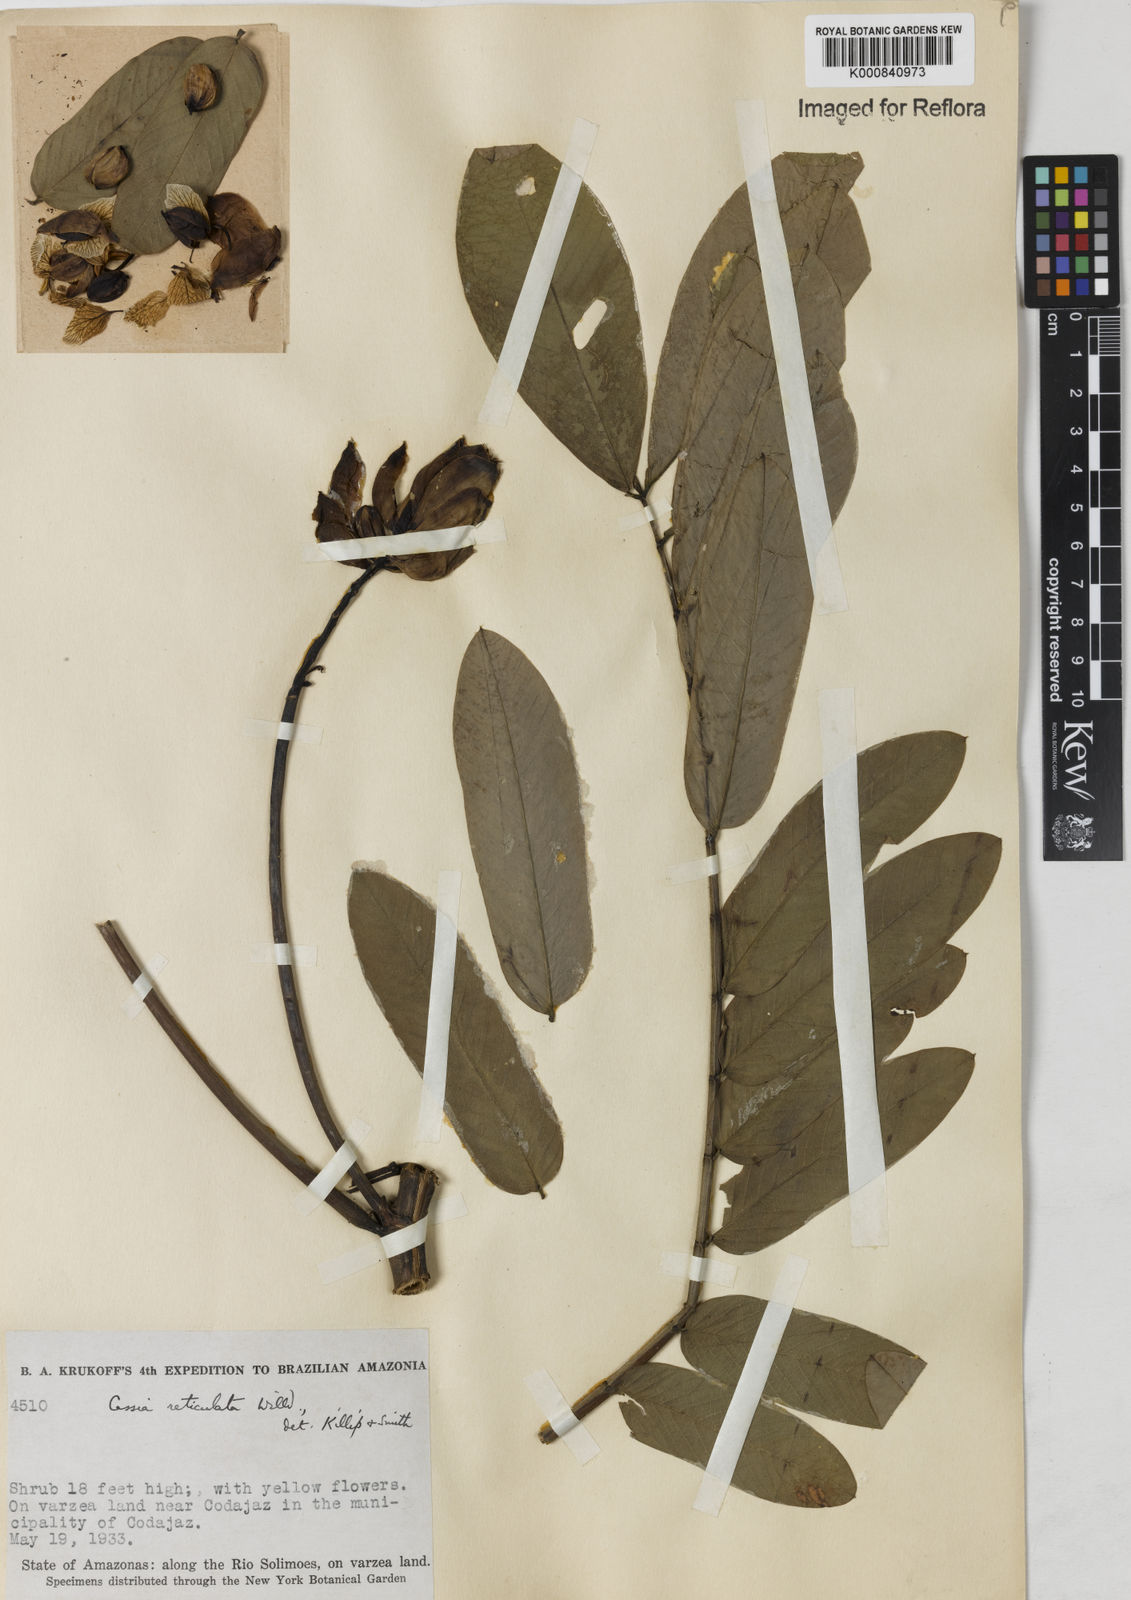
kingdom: Plantae
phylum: Tracheophyta
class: Magnoliopsida
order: Fabales
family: Fabaceae
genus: Senna
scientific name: Senna reticulata
